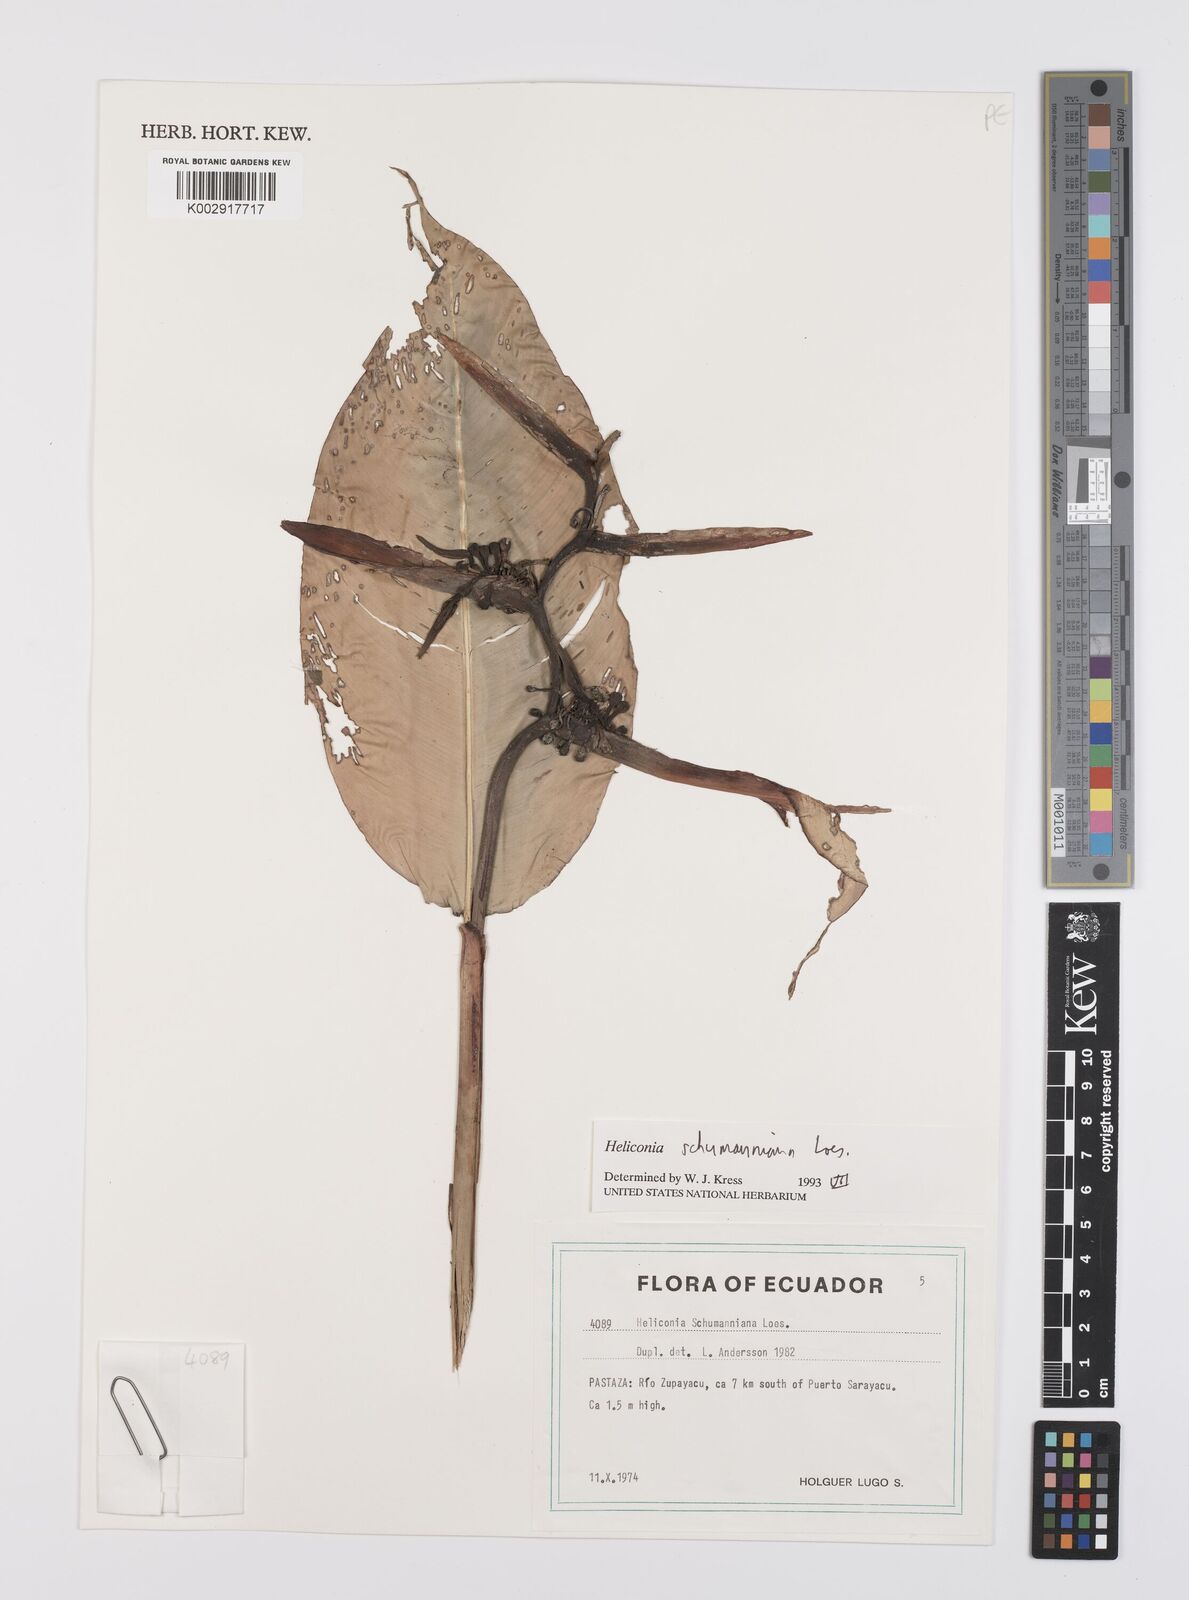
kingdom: Plantae
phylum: Tracheophyta
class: Liliopsida
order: Zingiberales
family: Heliconiaceae
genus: Heliconia
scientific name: Heliconia schumanniana
